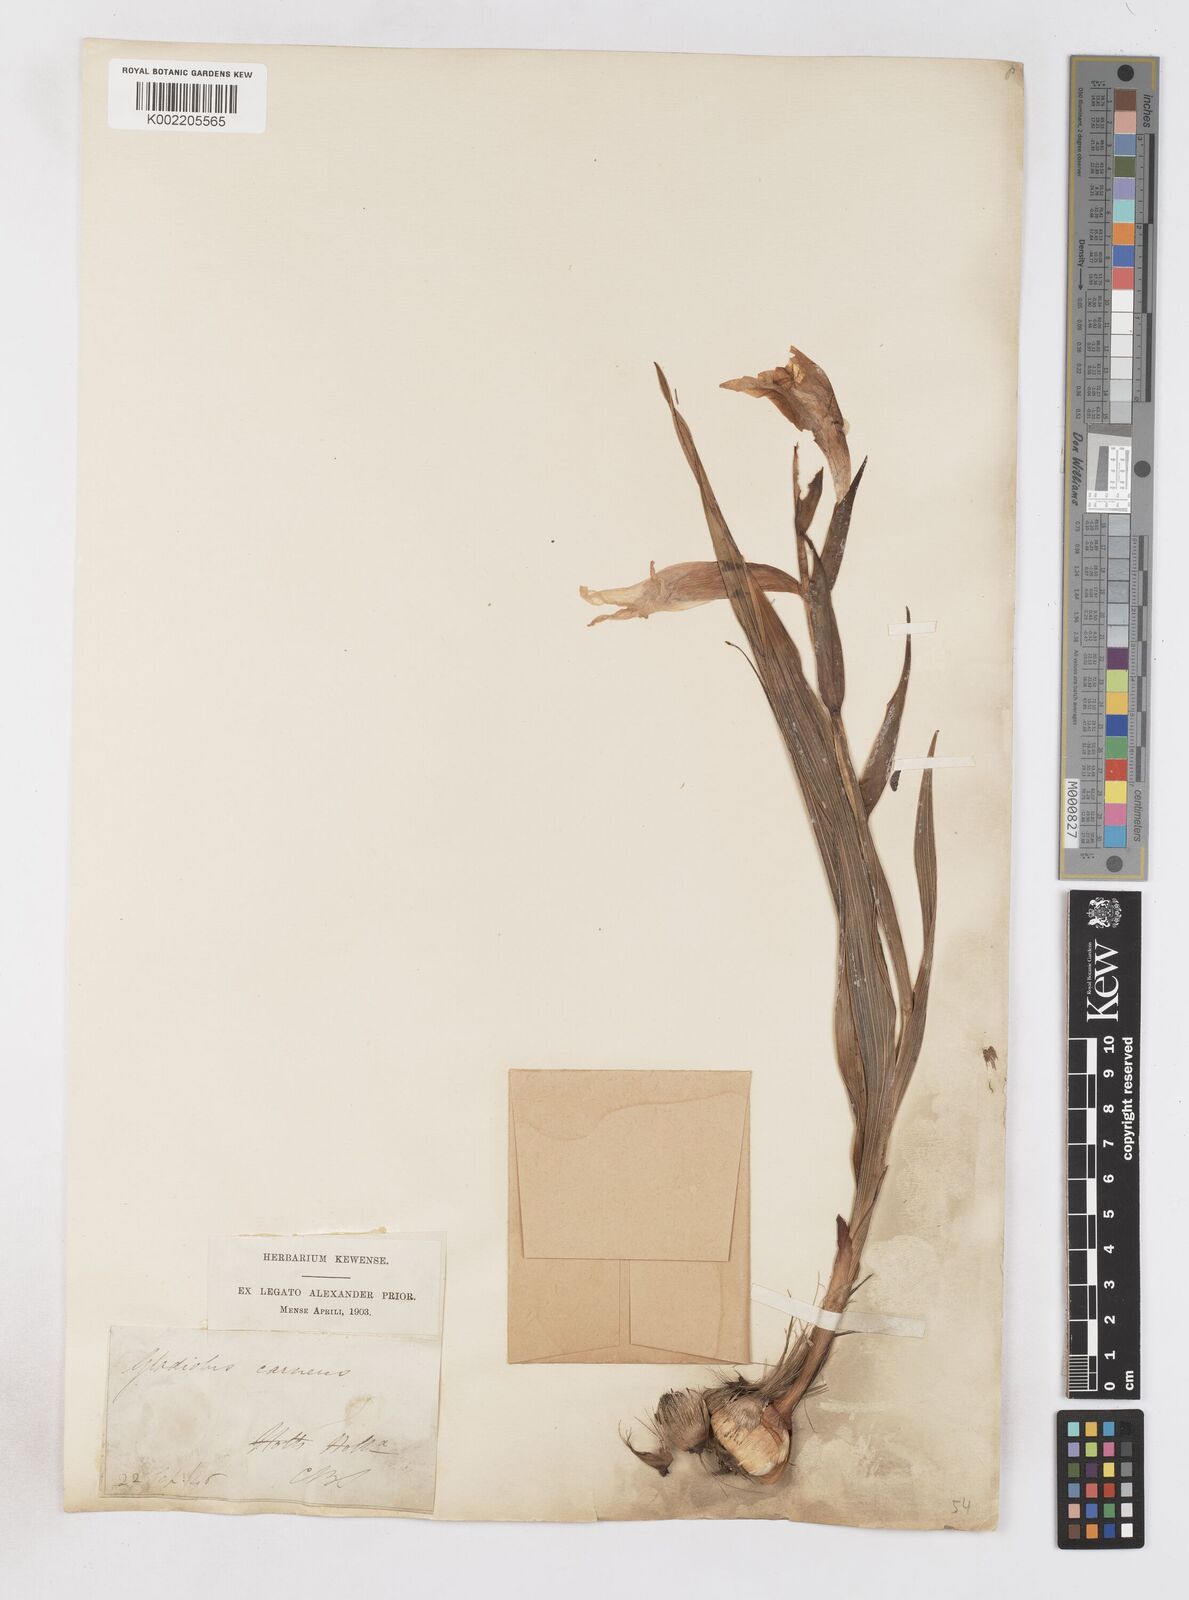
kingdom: Plantae
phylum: Tracheophyta
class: Liliopsida
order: Asparagales
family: Iridaceae
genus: Gladiolus
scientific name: Gladiolus carneus
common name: Painted-lady
